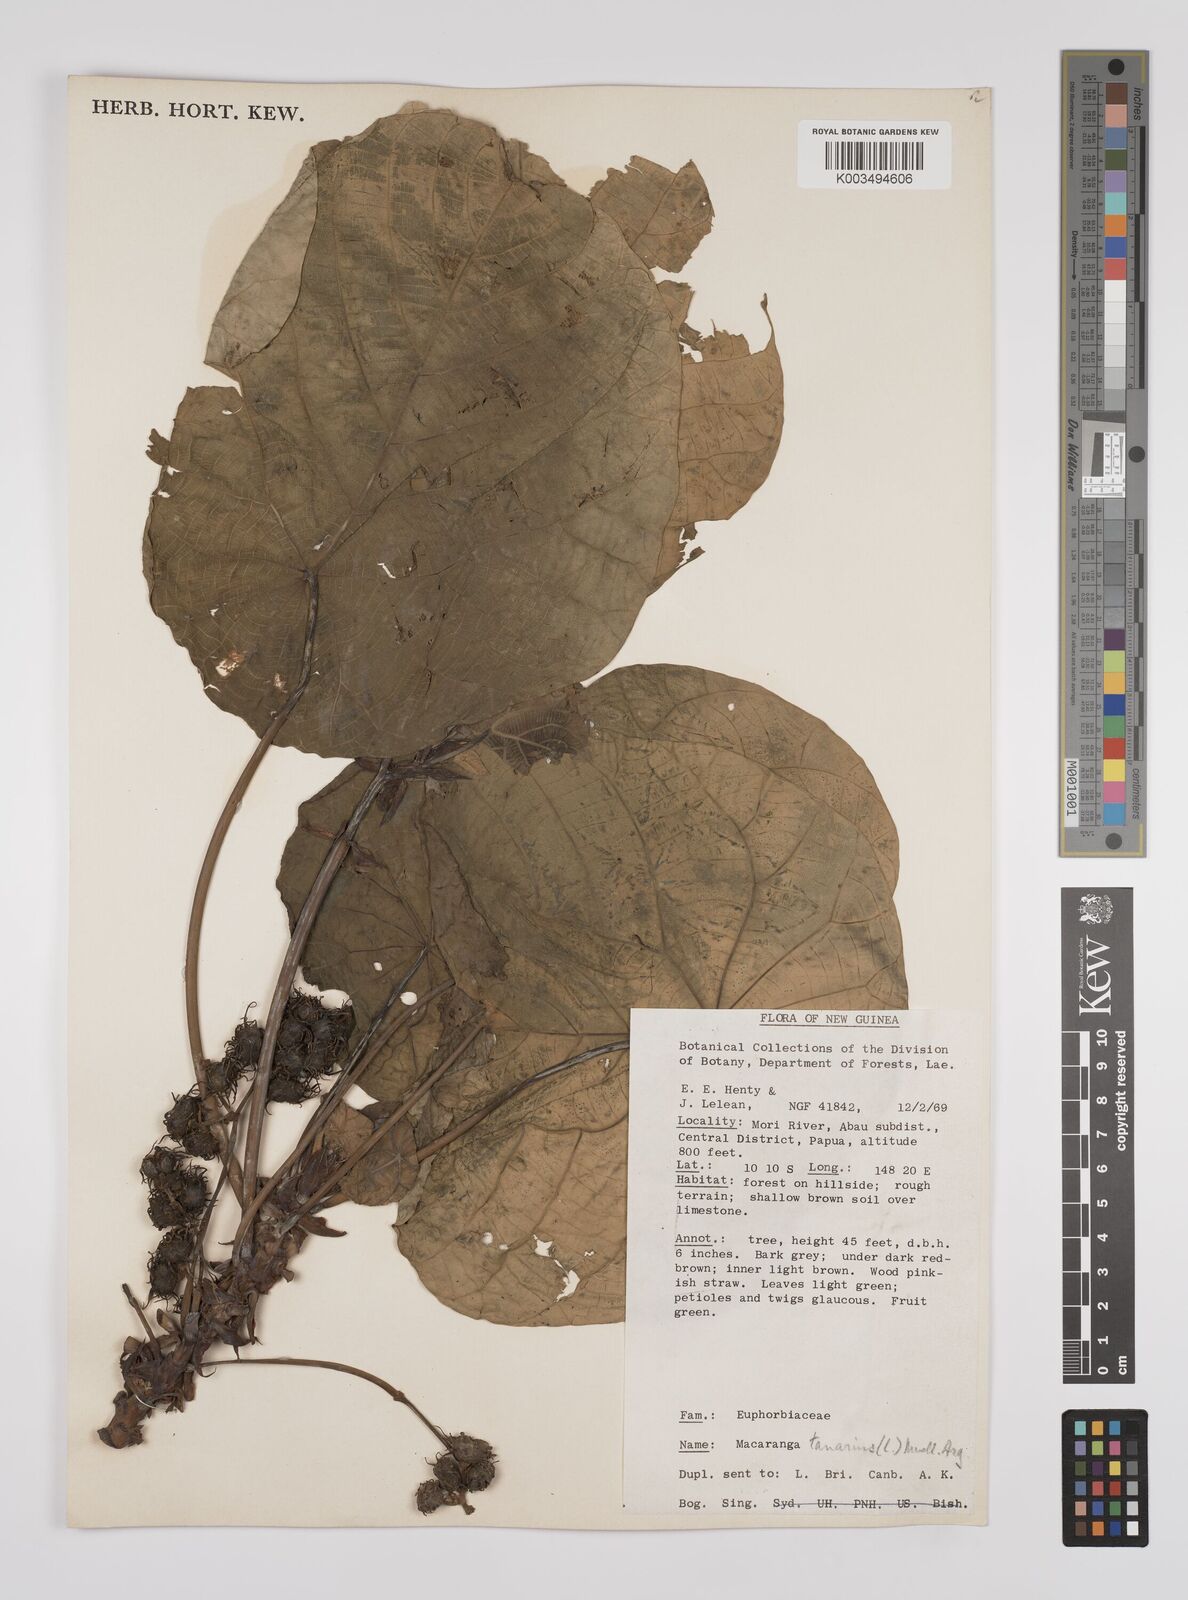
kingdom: Plantae
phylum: Tracheophyta
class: Magnoliopsida
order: Malpighiales
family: Euphorbiaceae
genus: Macaranga
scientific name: Macaranga tanarius
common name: Parasol leaf tree
